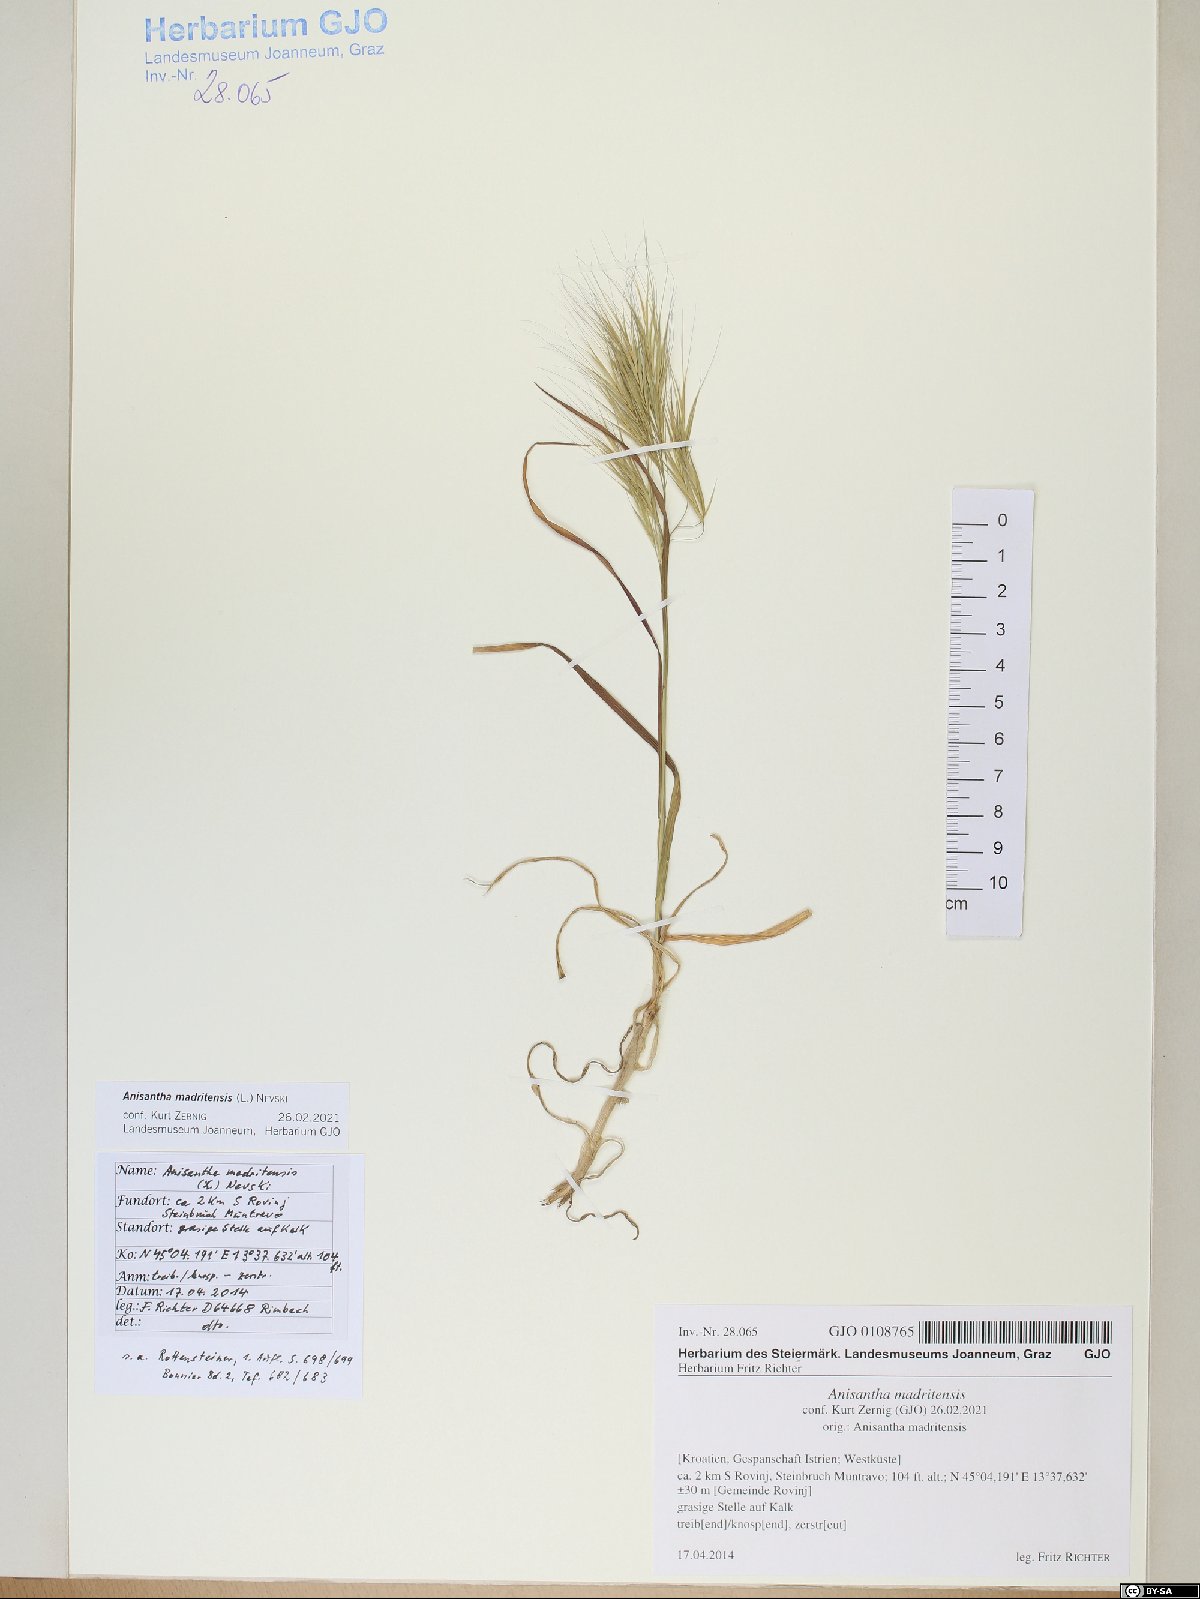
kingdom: Plantae
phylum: Tracheophyta
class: Liliopsida
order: Poales
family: Poaceae
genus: Bromus
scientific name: Bromus madritensis
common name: Compact brome
